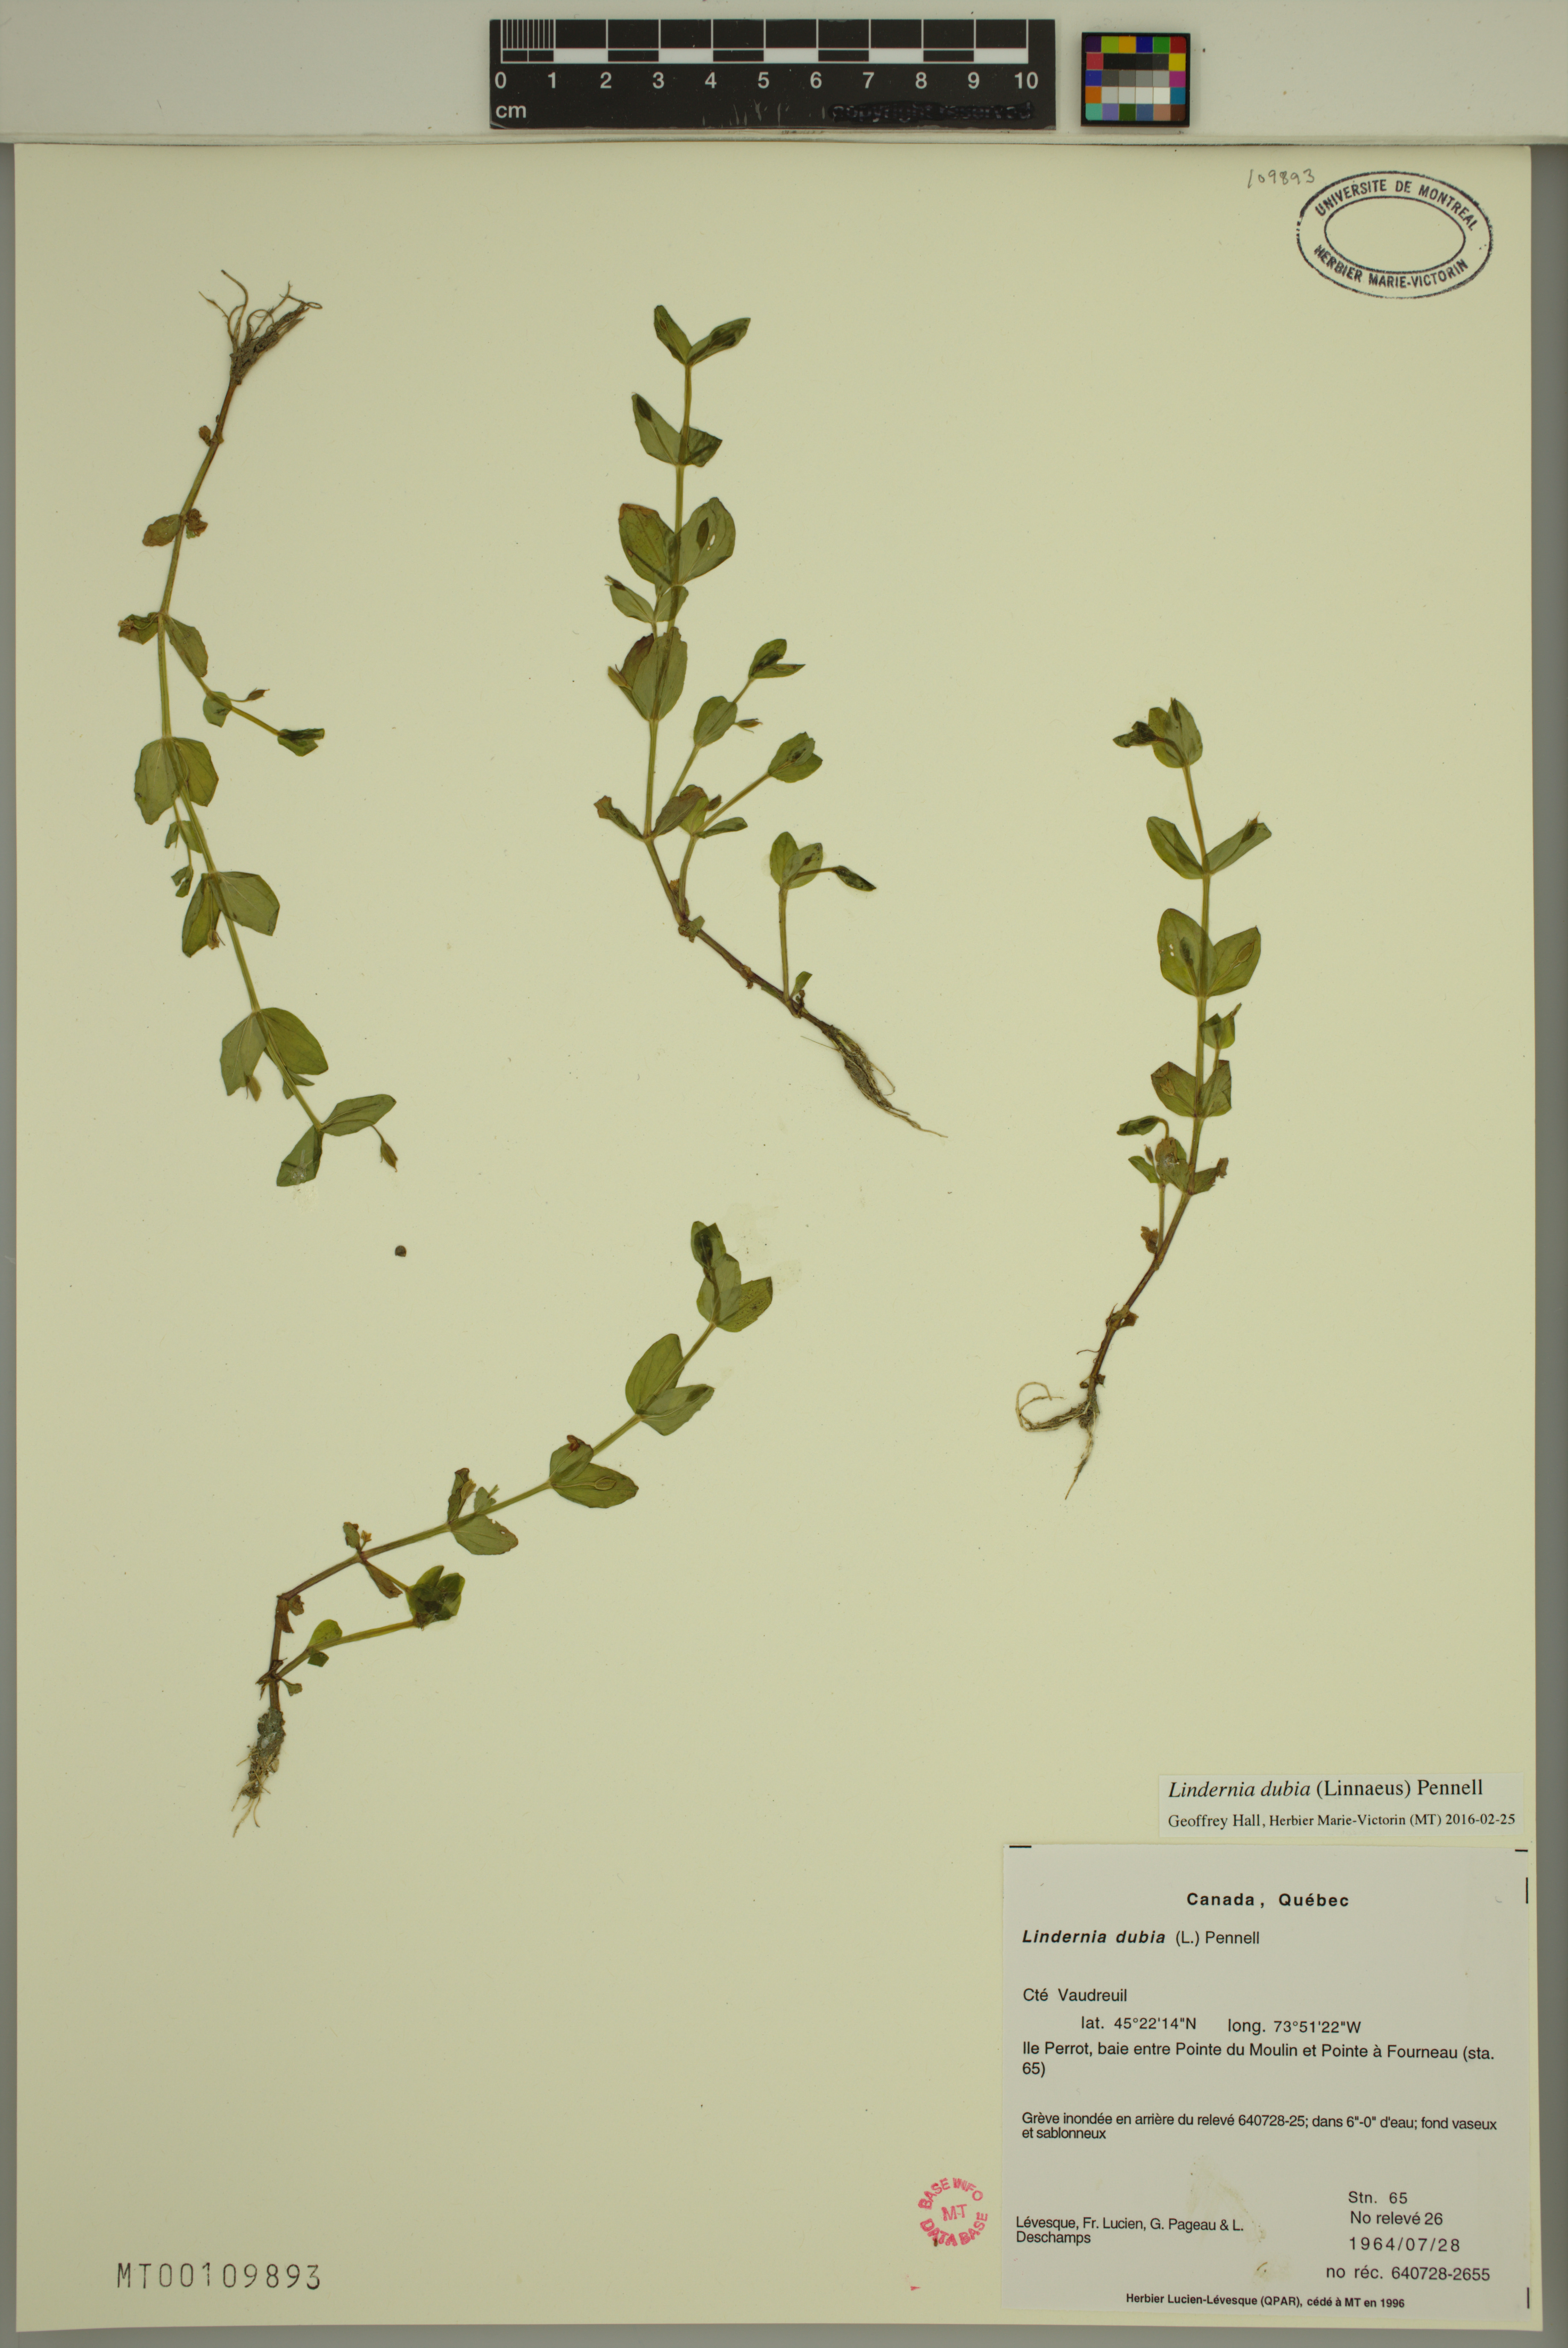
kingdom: Plantae
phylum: Tracheophyta
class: Magnoliopsida
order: Lamiales
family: Linderniaceae
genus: Lindernia
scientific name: Lindernia dubia
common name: Annual false pimpernel
